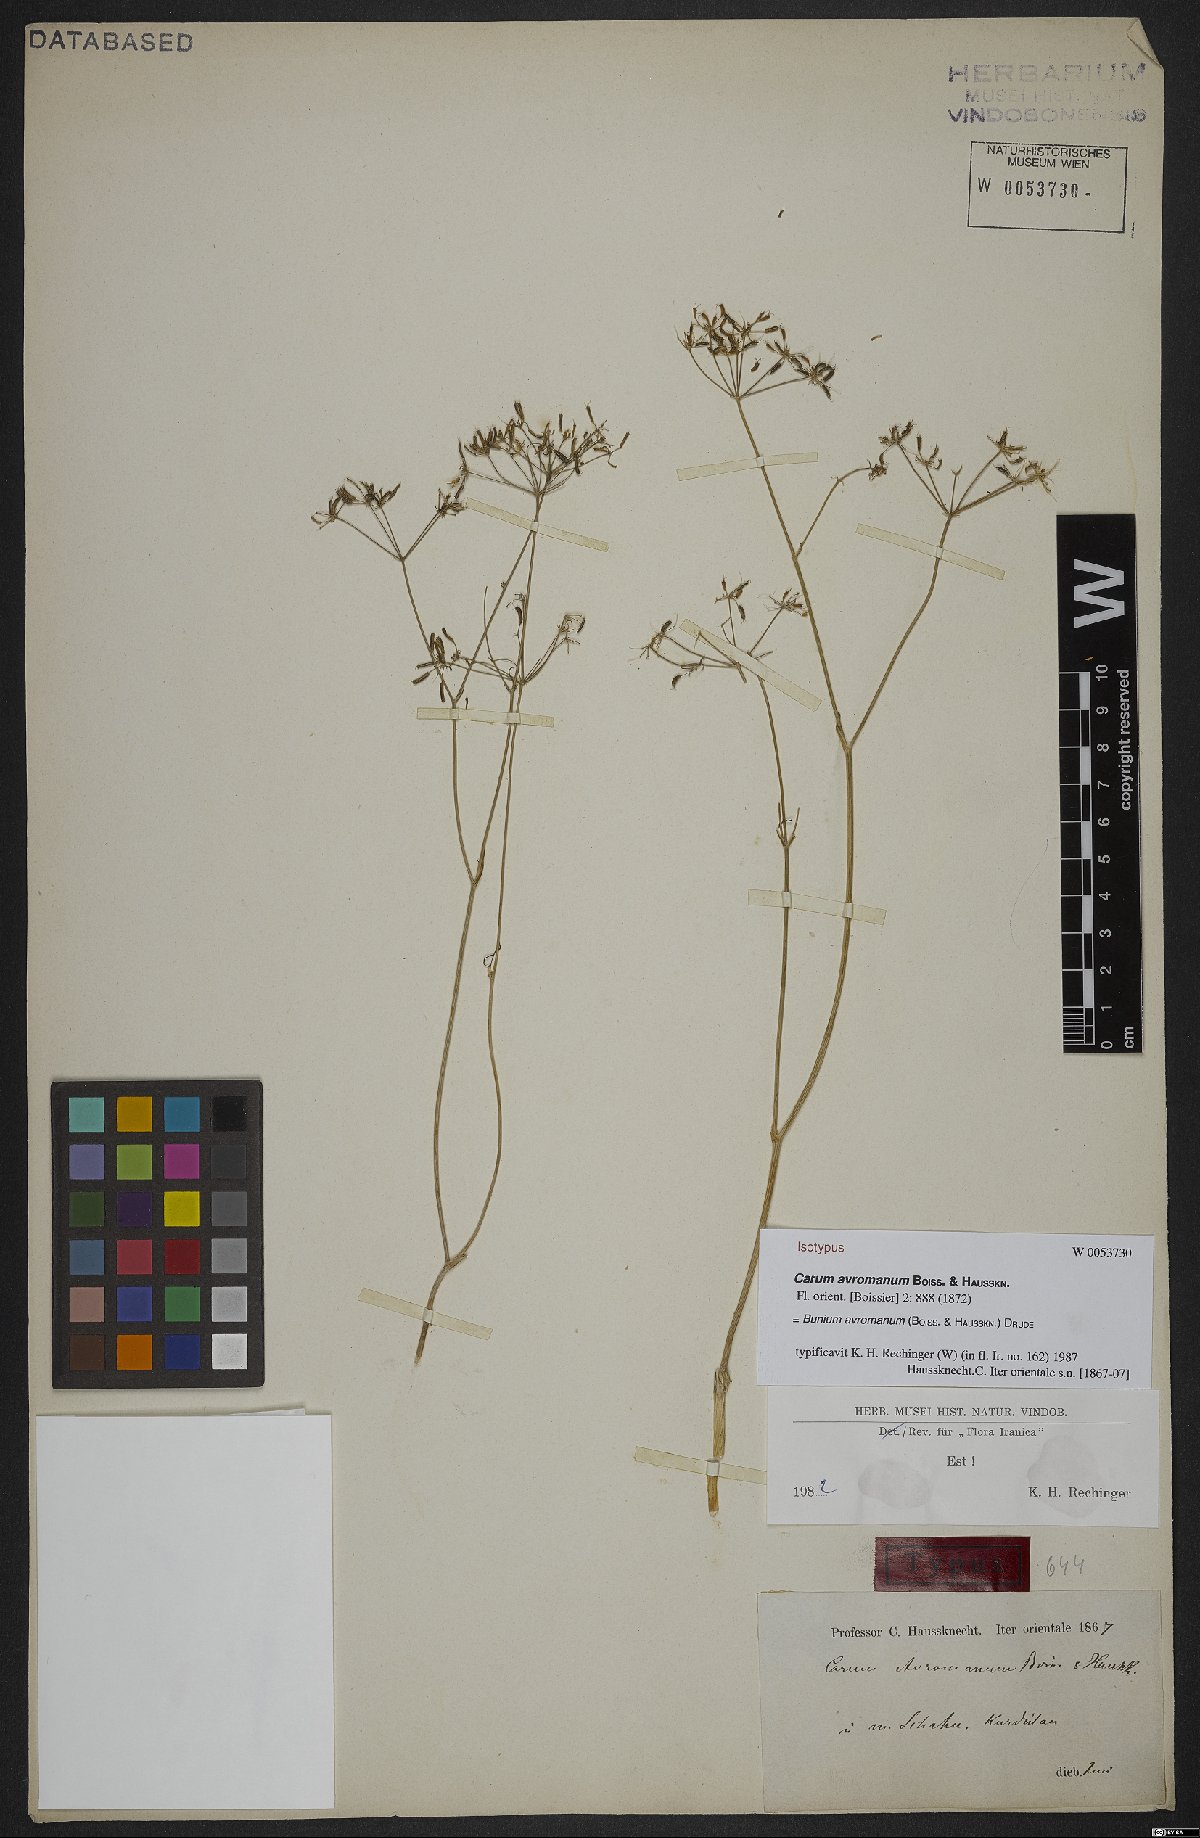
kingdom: Plantae
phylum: Tracheophyta
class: Magnoliopsida
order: Apiales
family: Apiaceae
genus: Bunium
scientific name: Bunium avromanum
